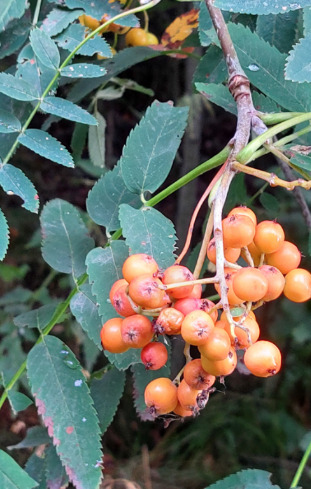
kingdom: Plantae
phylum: Tracheophyta
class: Magnoliopsida
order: Rosales
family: Rosaceae
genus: Sorbus
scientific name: Sorbus aucuparia
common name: Almindelig røn
